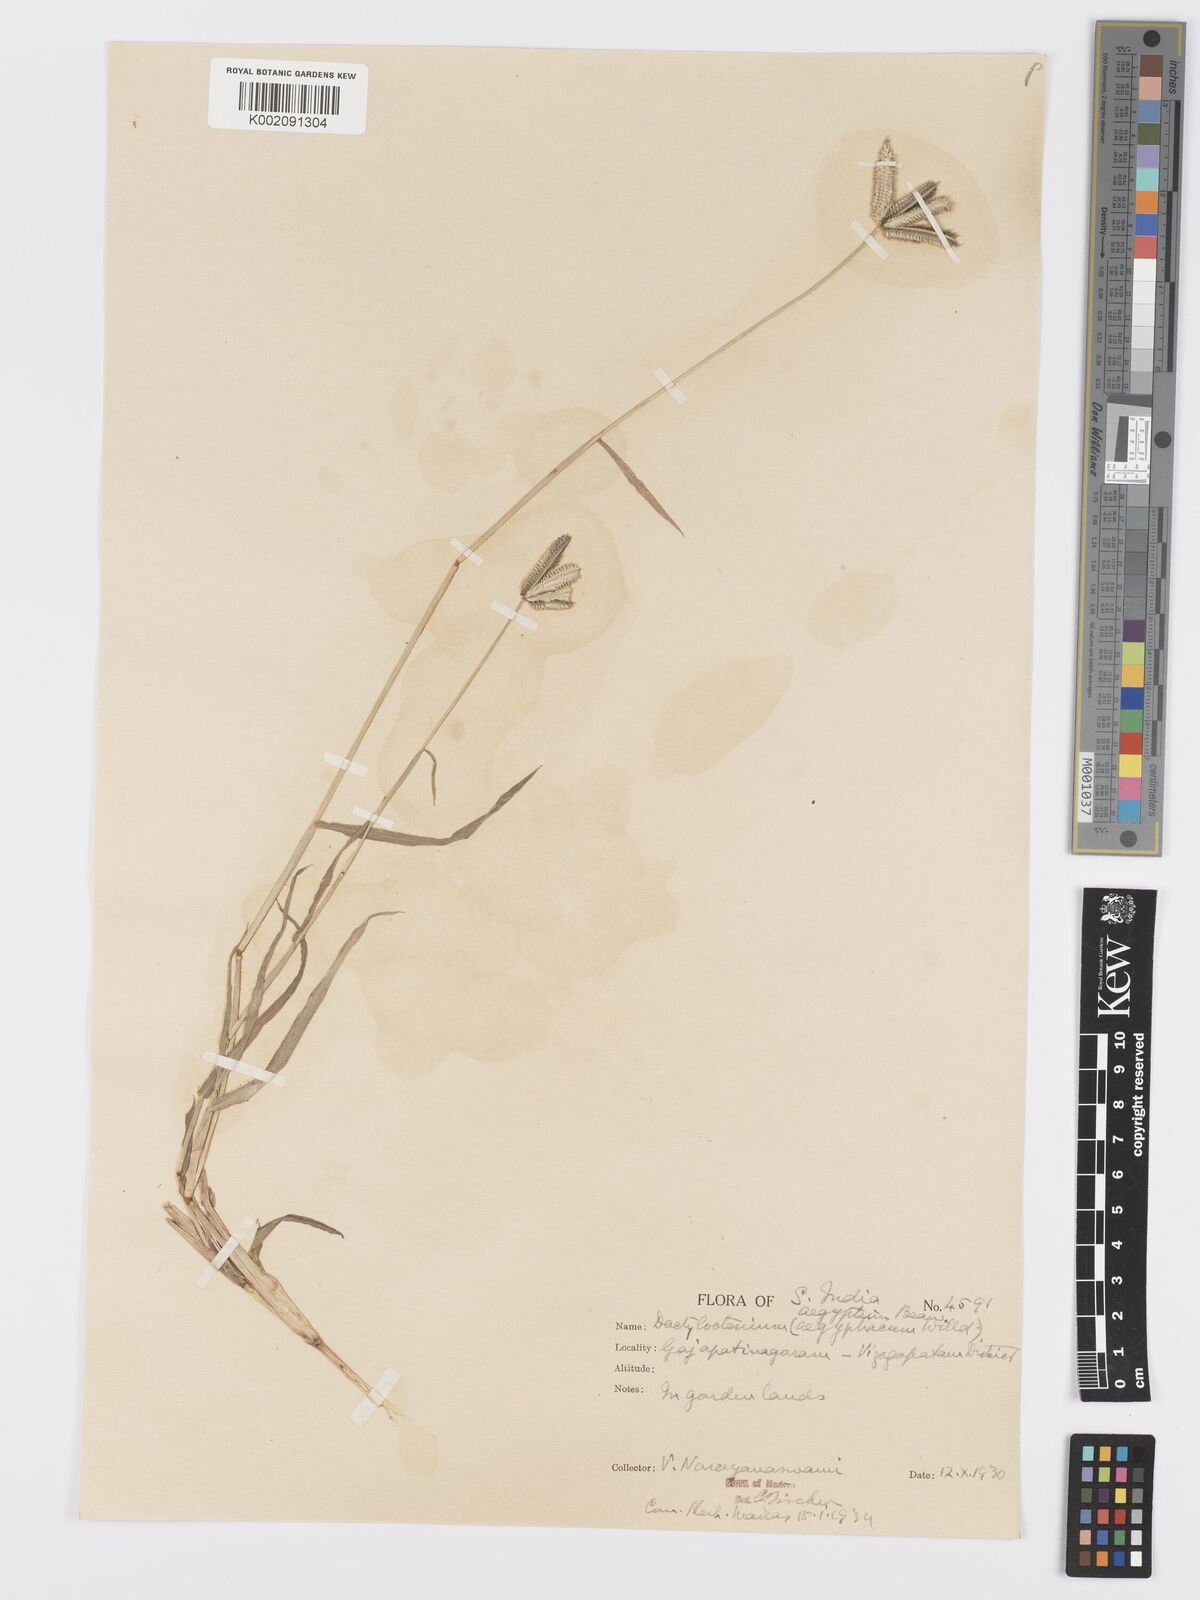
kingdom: Plantae
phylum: Tracheophyta
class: Liliopsida
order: Poales
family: Poaceae
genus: Dactyloctenium
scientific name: Dactyloctenium aegyptium
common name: Egyptian grass
